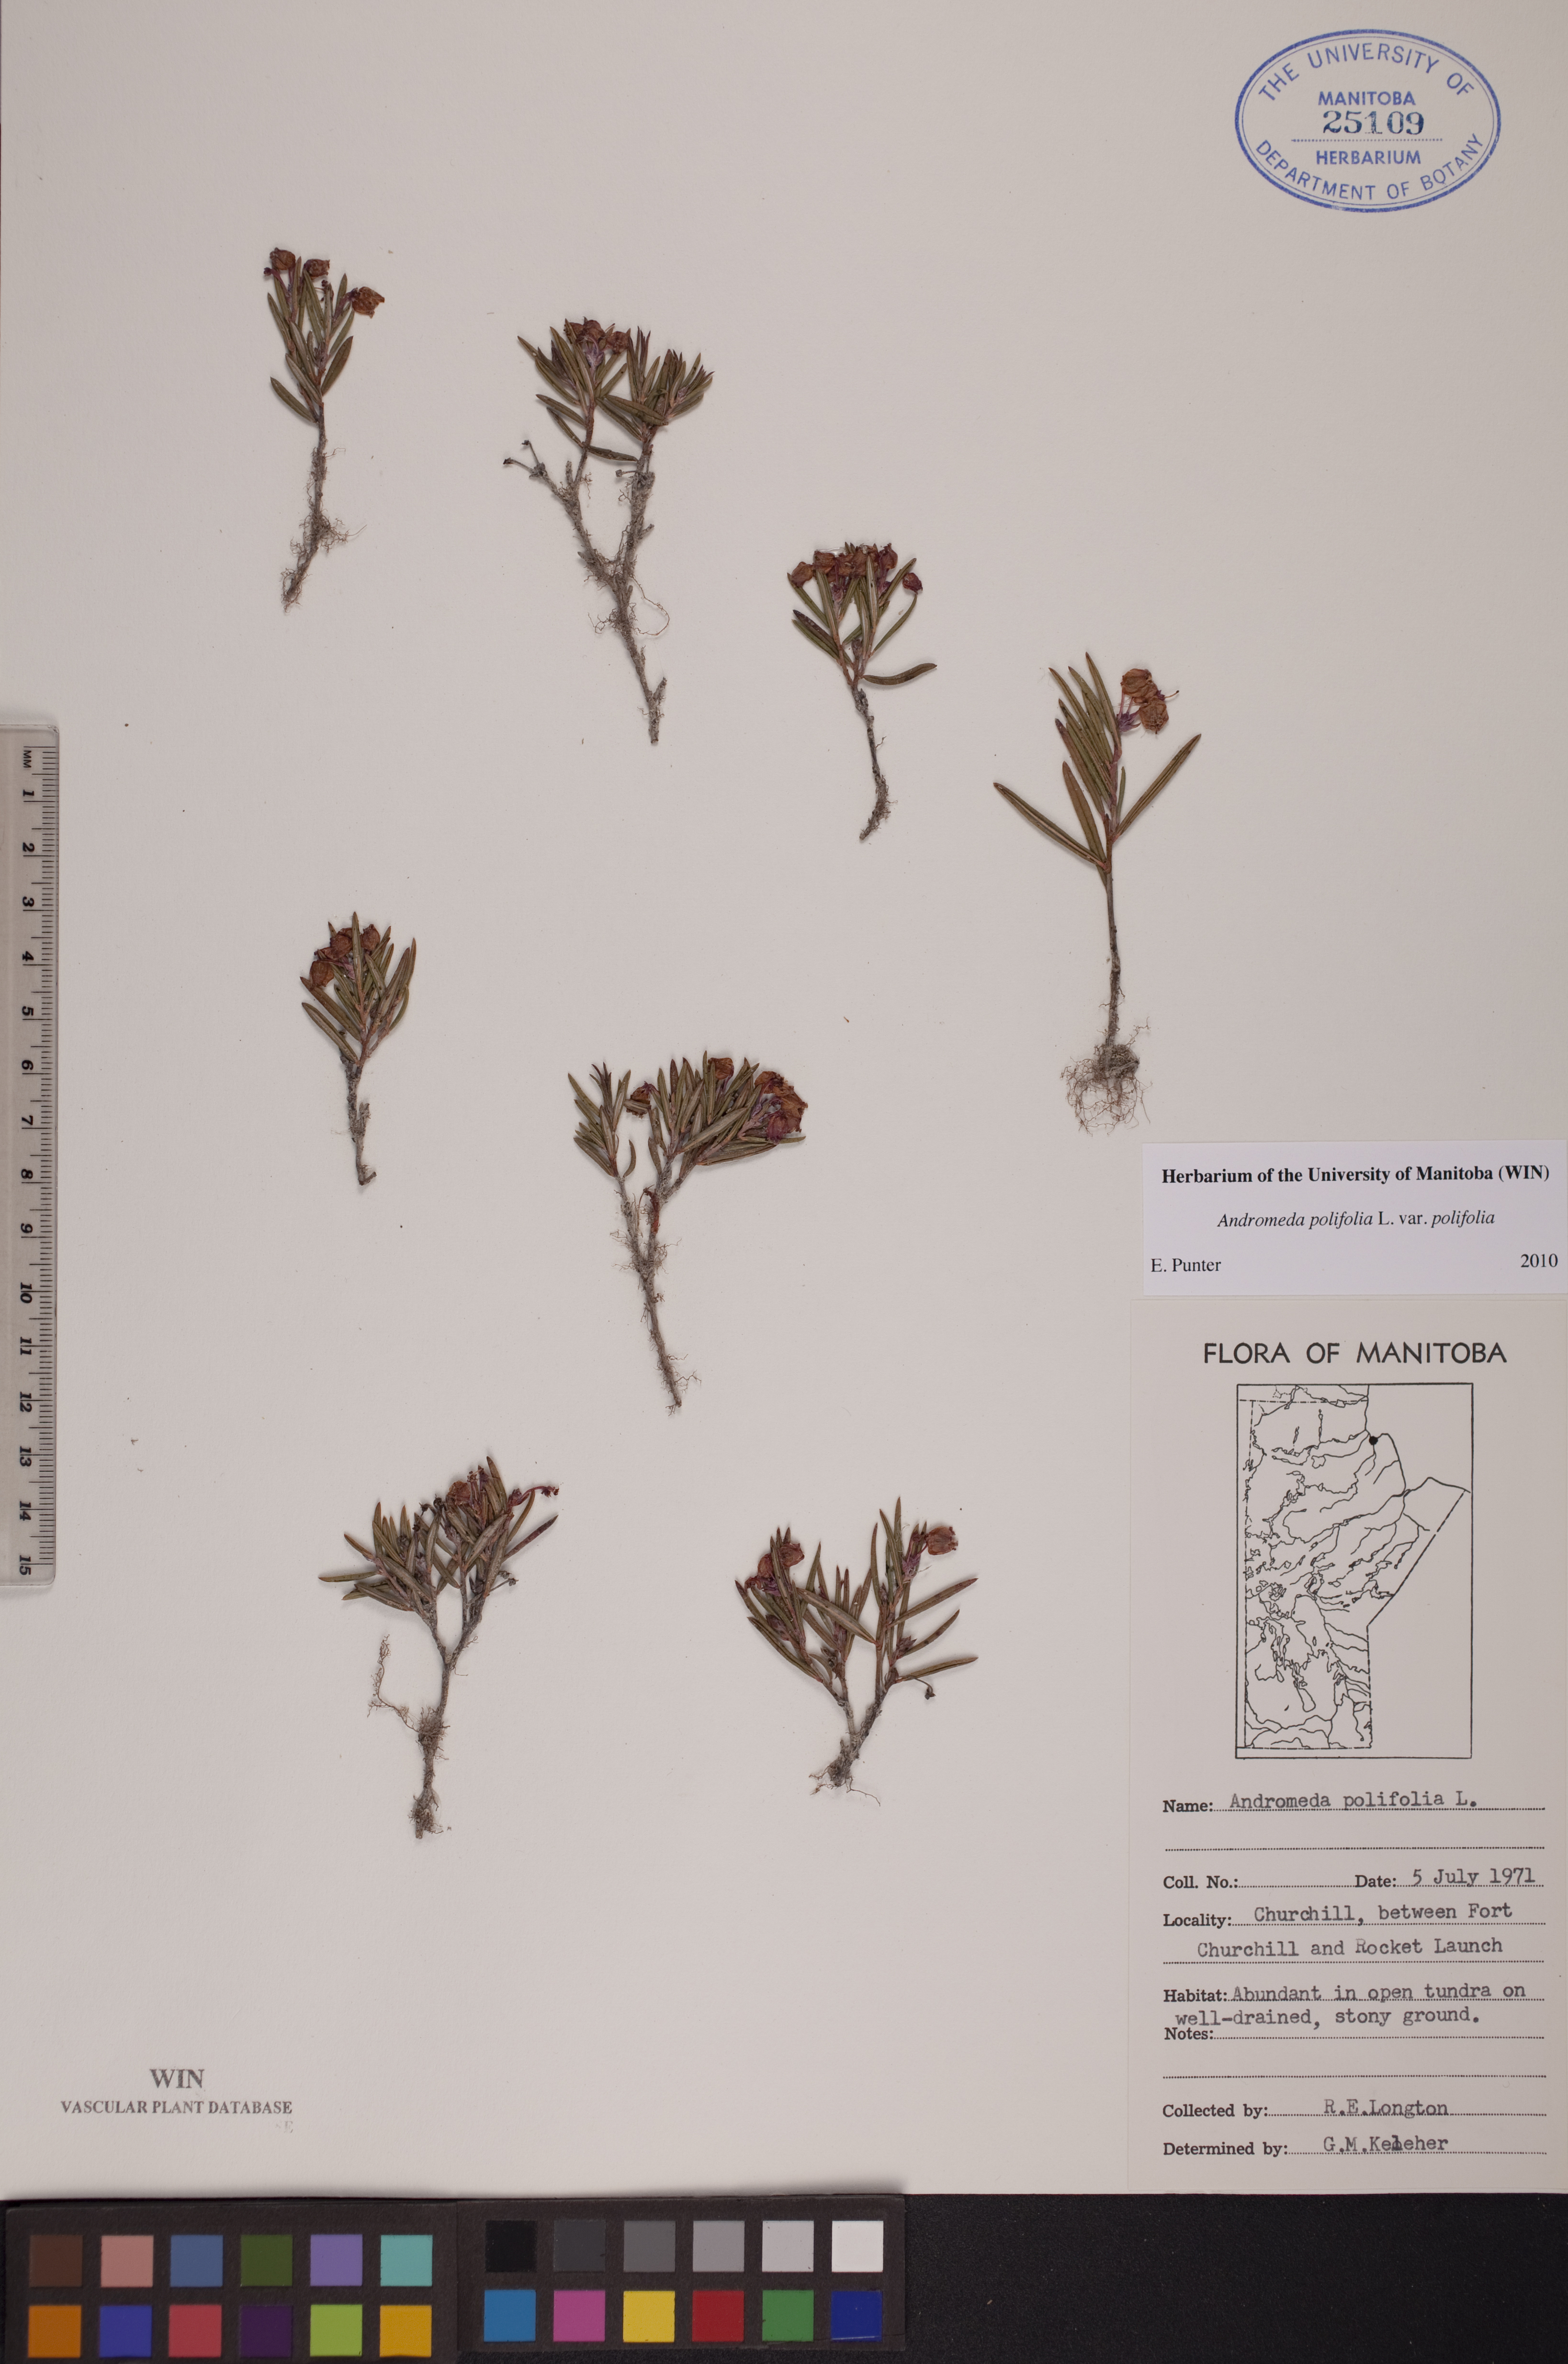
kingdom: Plantae
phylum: Tracheophyta
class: Magnoliopsida
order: Ericales
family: Ericaceae
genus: Andromeda
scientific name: Andromeda polifolia
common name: Bog-rosemary
